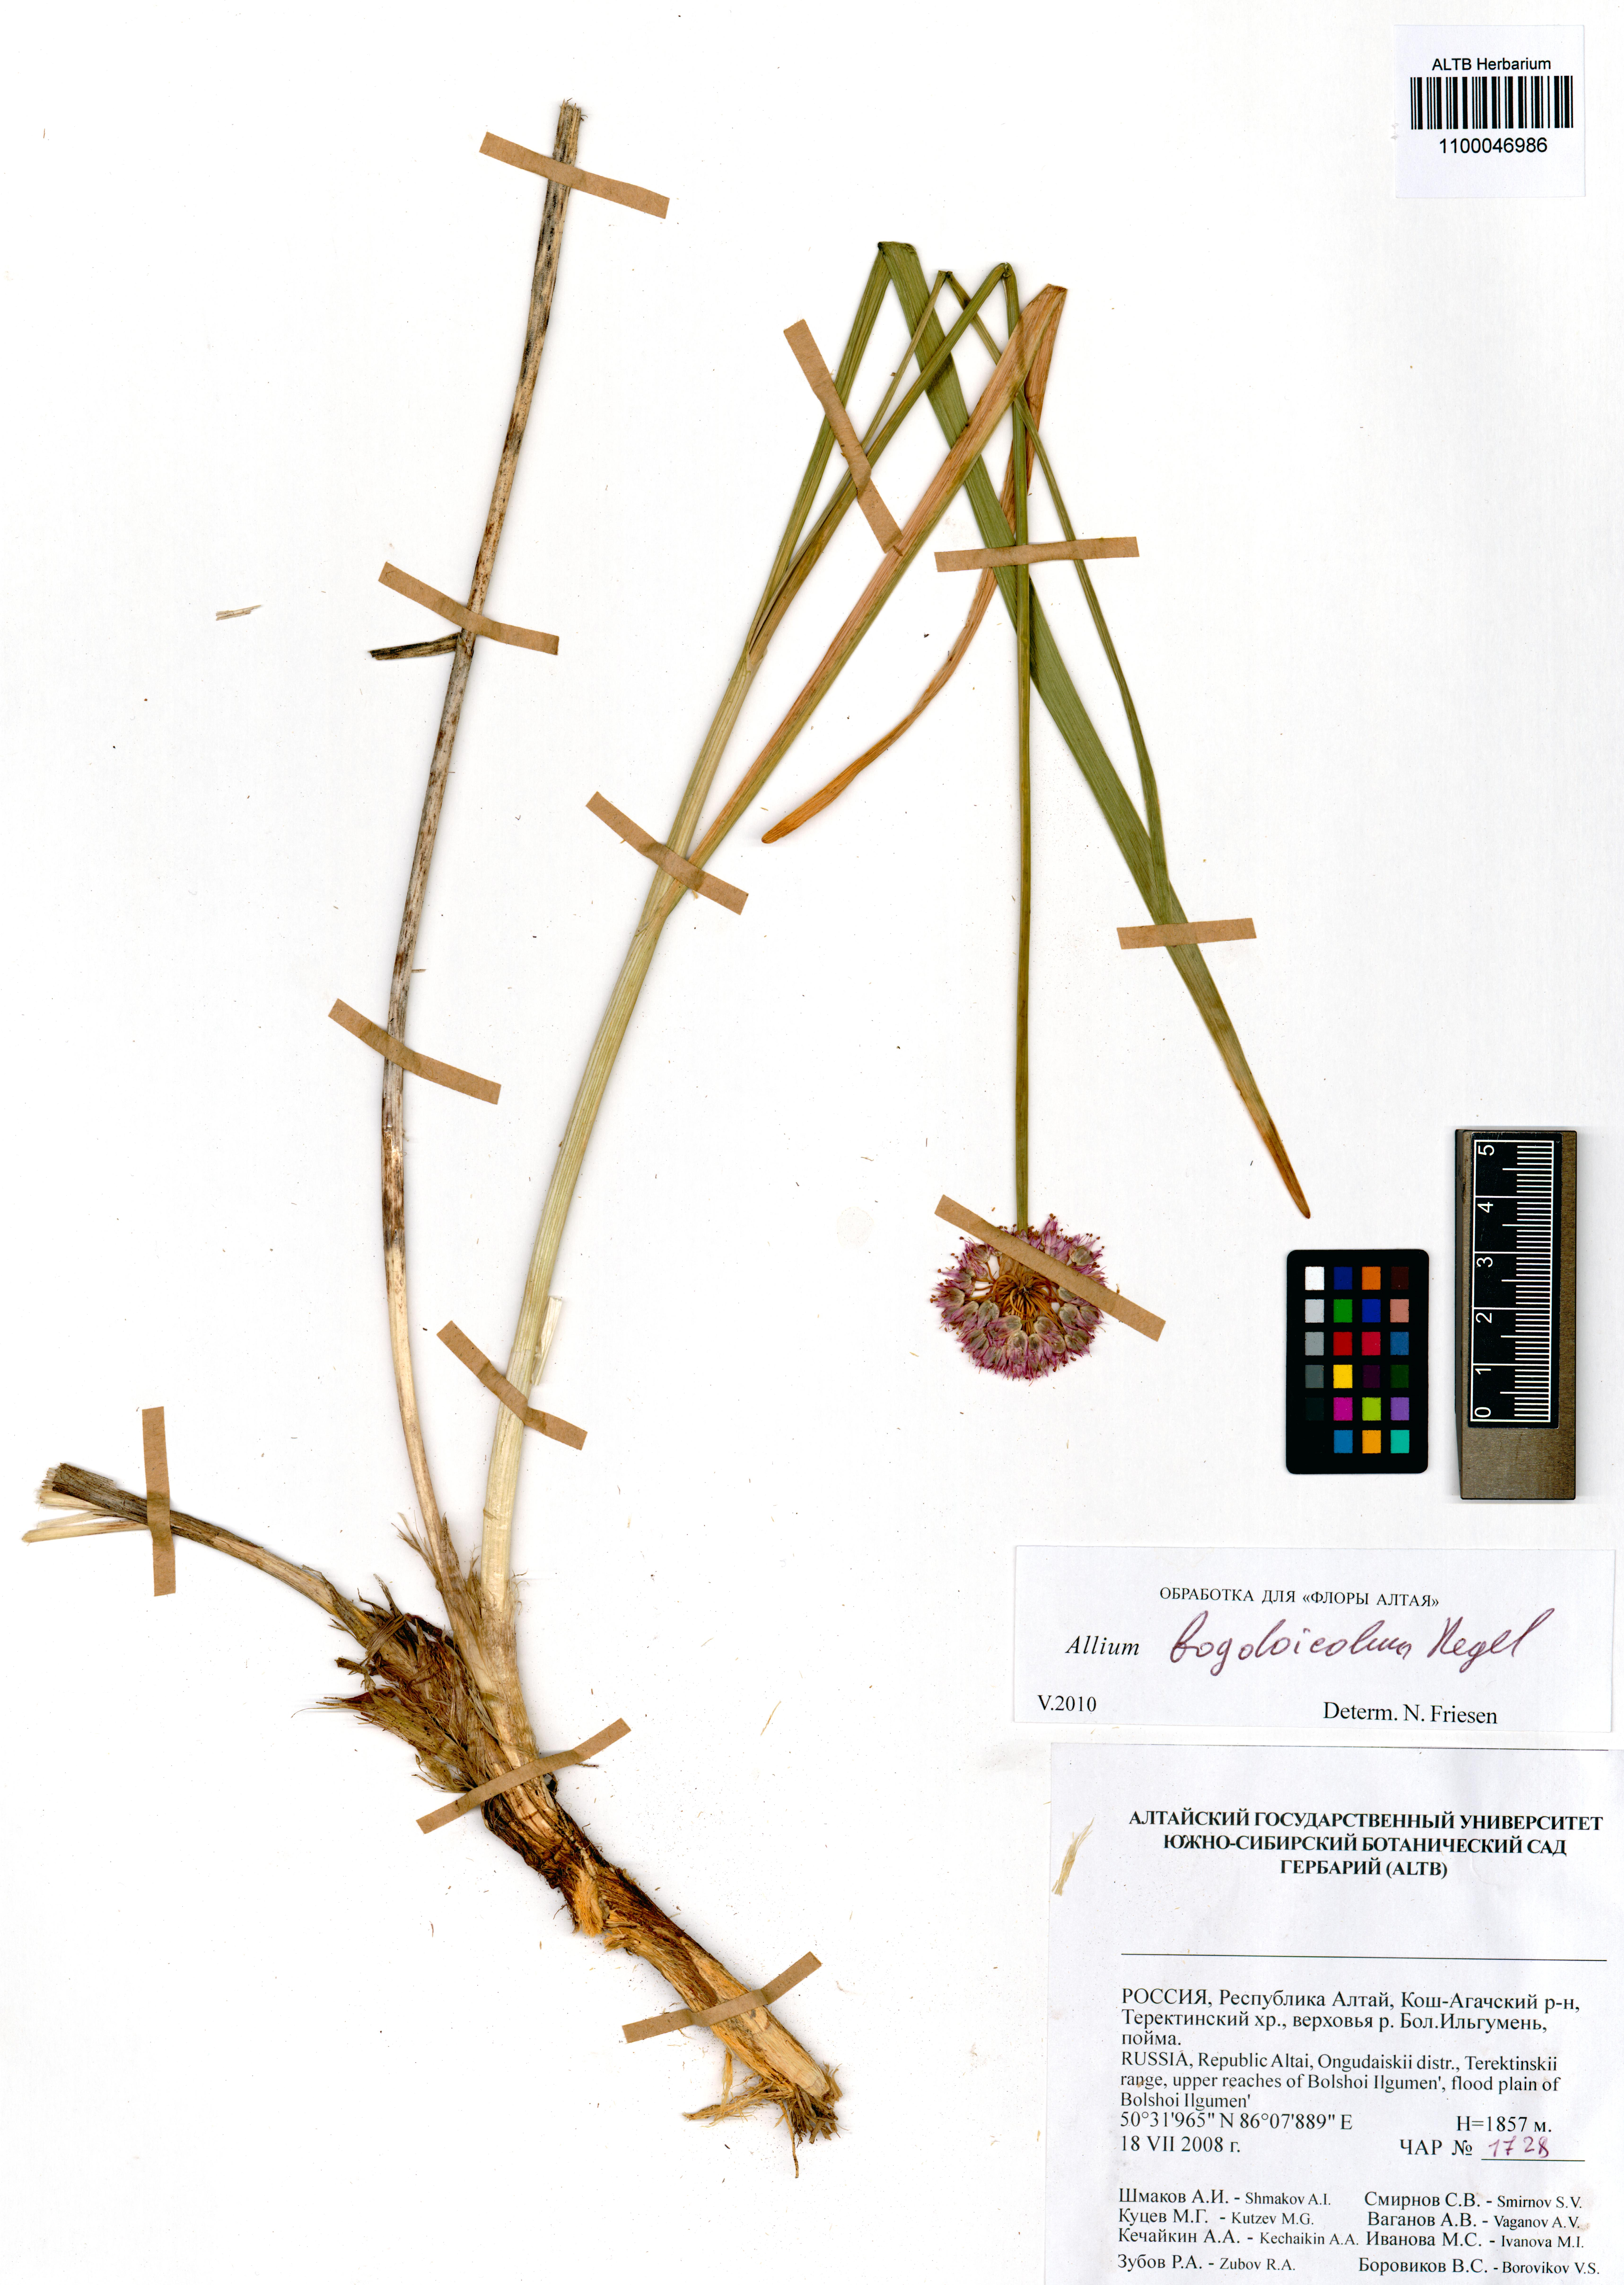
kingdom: Plantae
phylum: Tracheophyta
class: Liliopsida
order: Asparagales
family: Amaryllidaceae
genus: Allium
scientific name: Allium schrenkii
